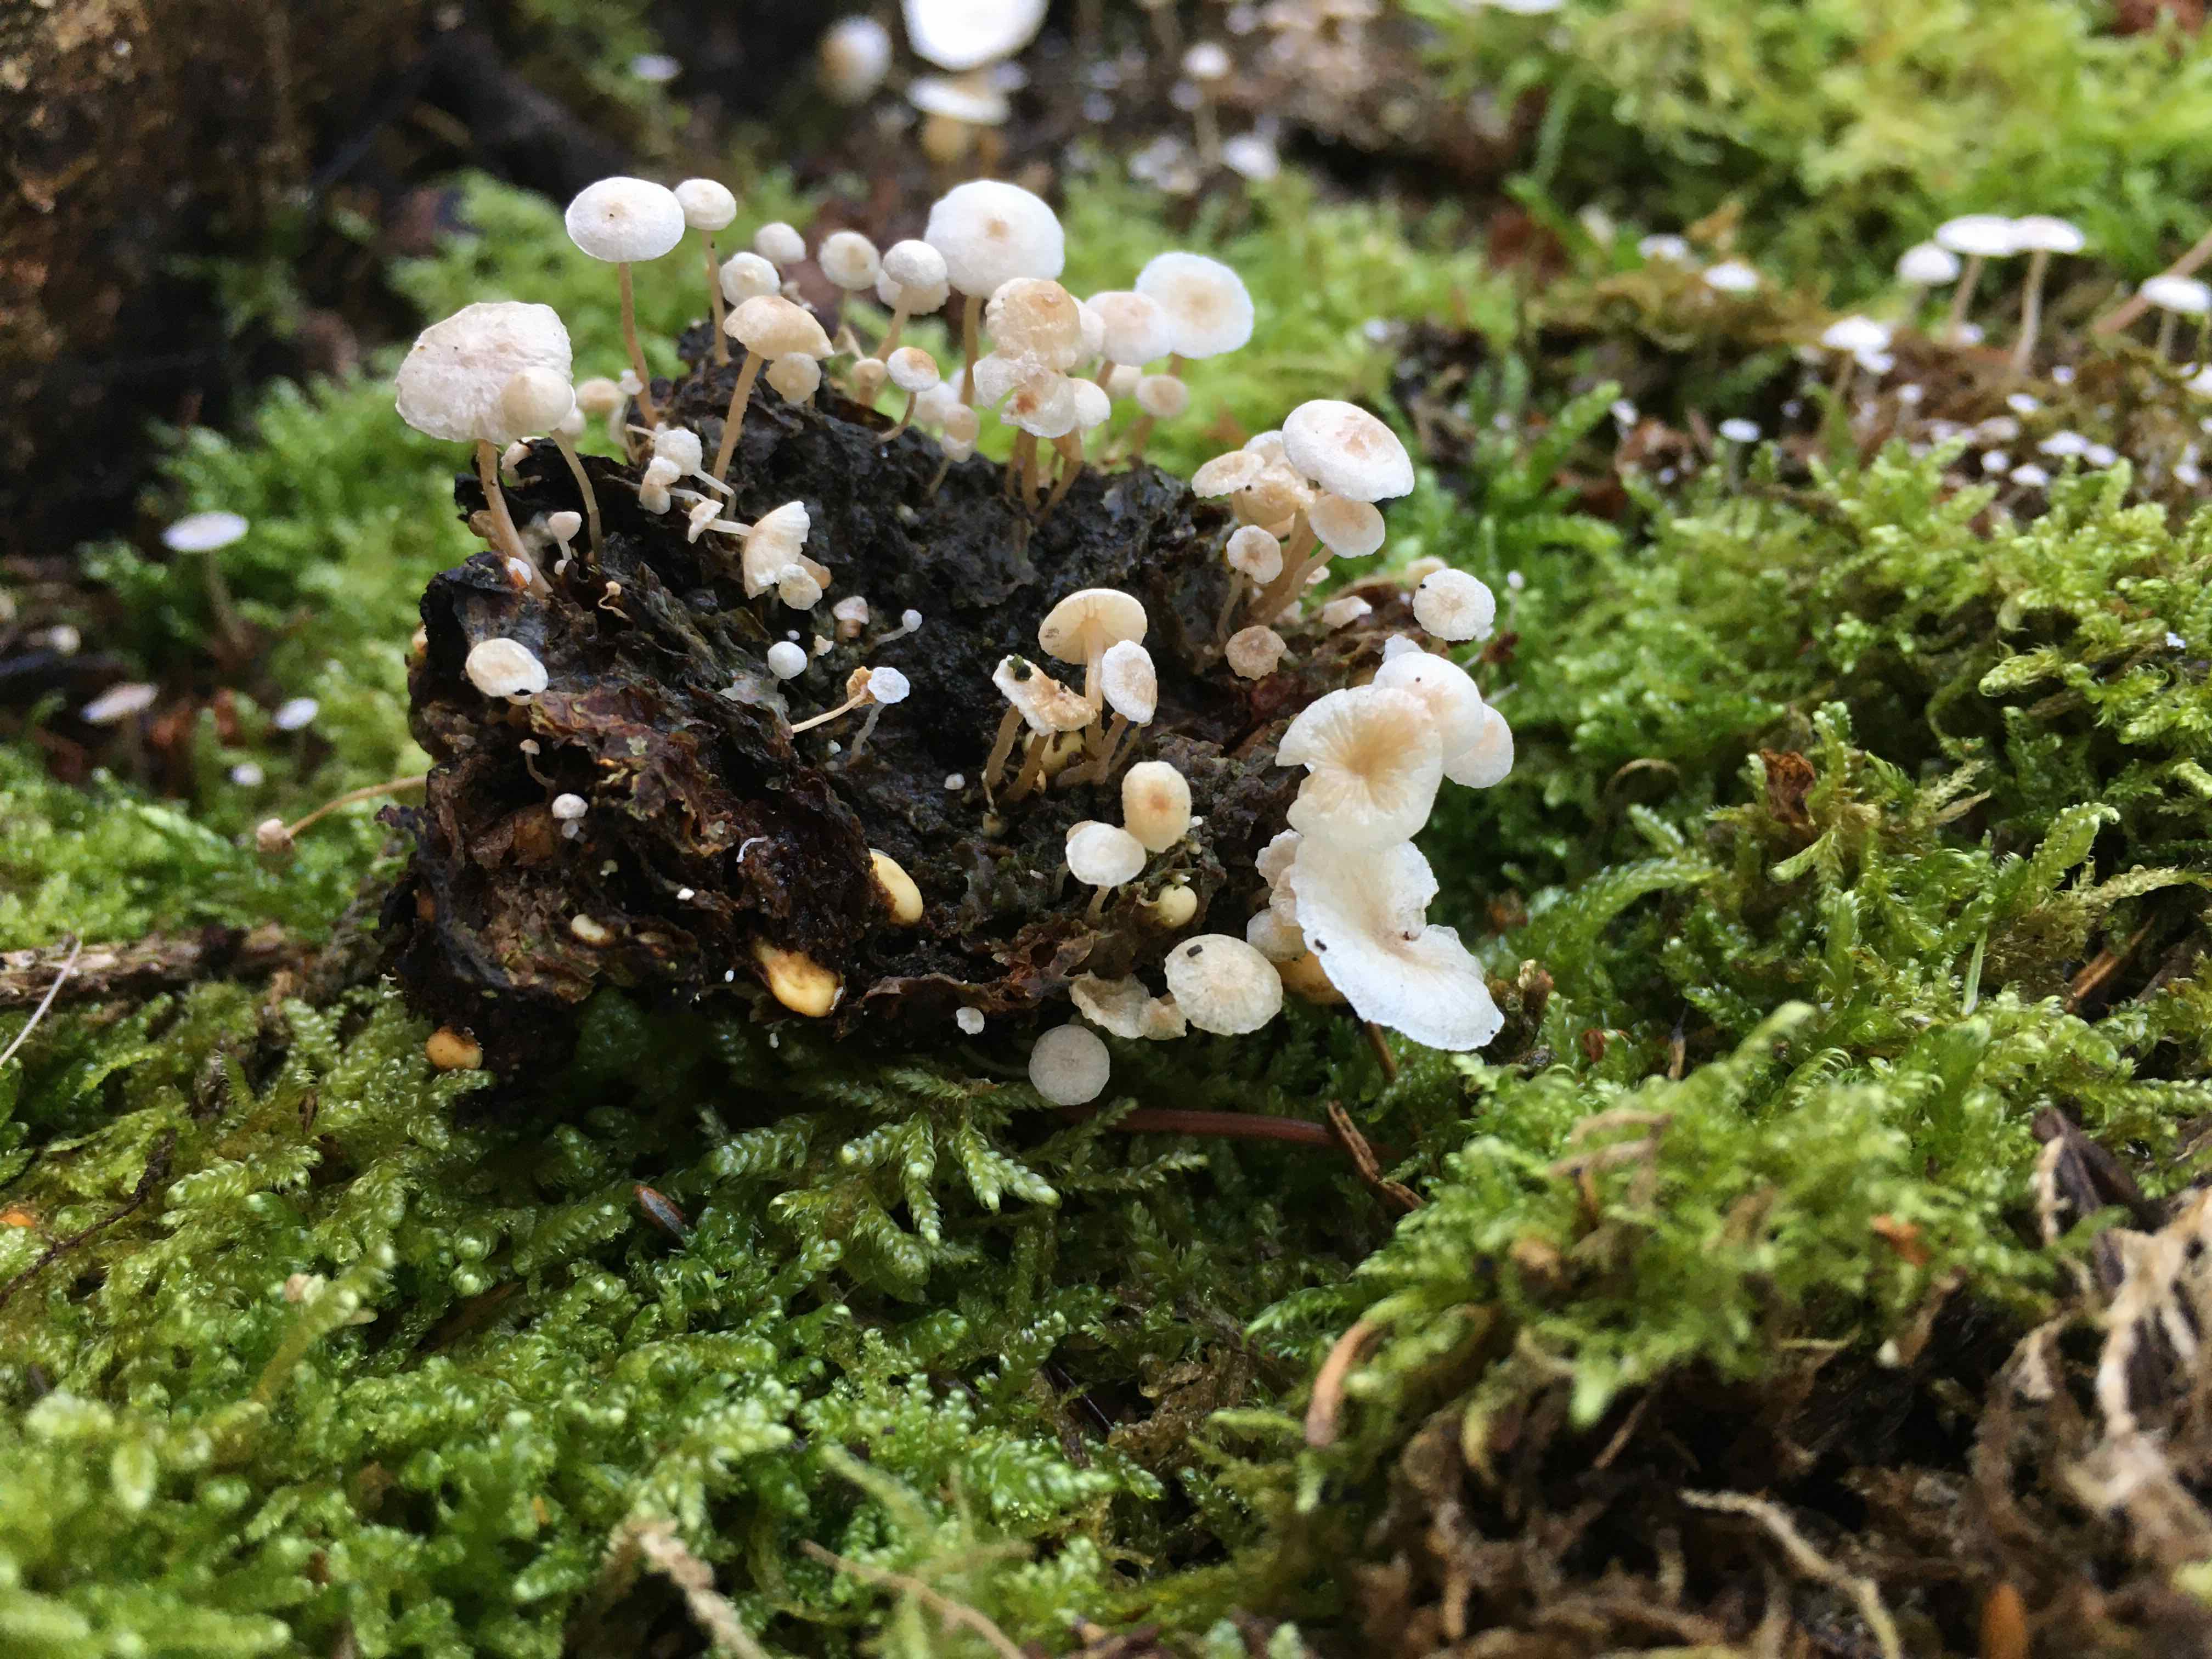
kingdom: Fungi
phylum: Basidiomycota
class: Agaricomycetes
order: Agaricales
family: Tricholomataceae
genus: Collybia
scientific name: Collybia cookei
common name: gulknoldet lighat
